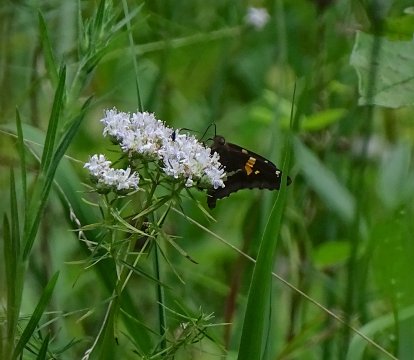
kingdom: Animalia
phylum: Arthropoda
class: Insecta
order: Lepidoptera
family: Hesperiidae
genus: Epargyreus
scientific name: Epargyreus clarus
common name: Silver-spotted Skipper
